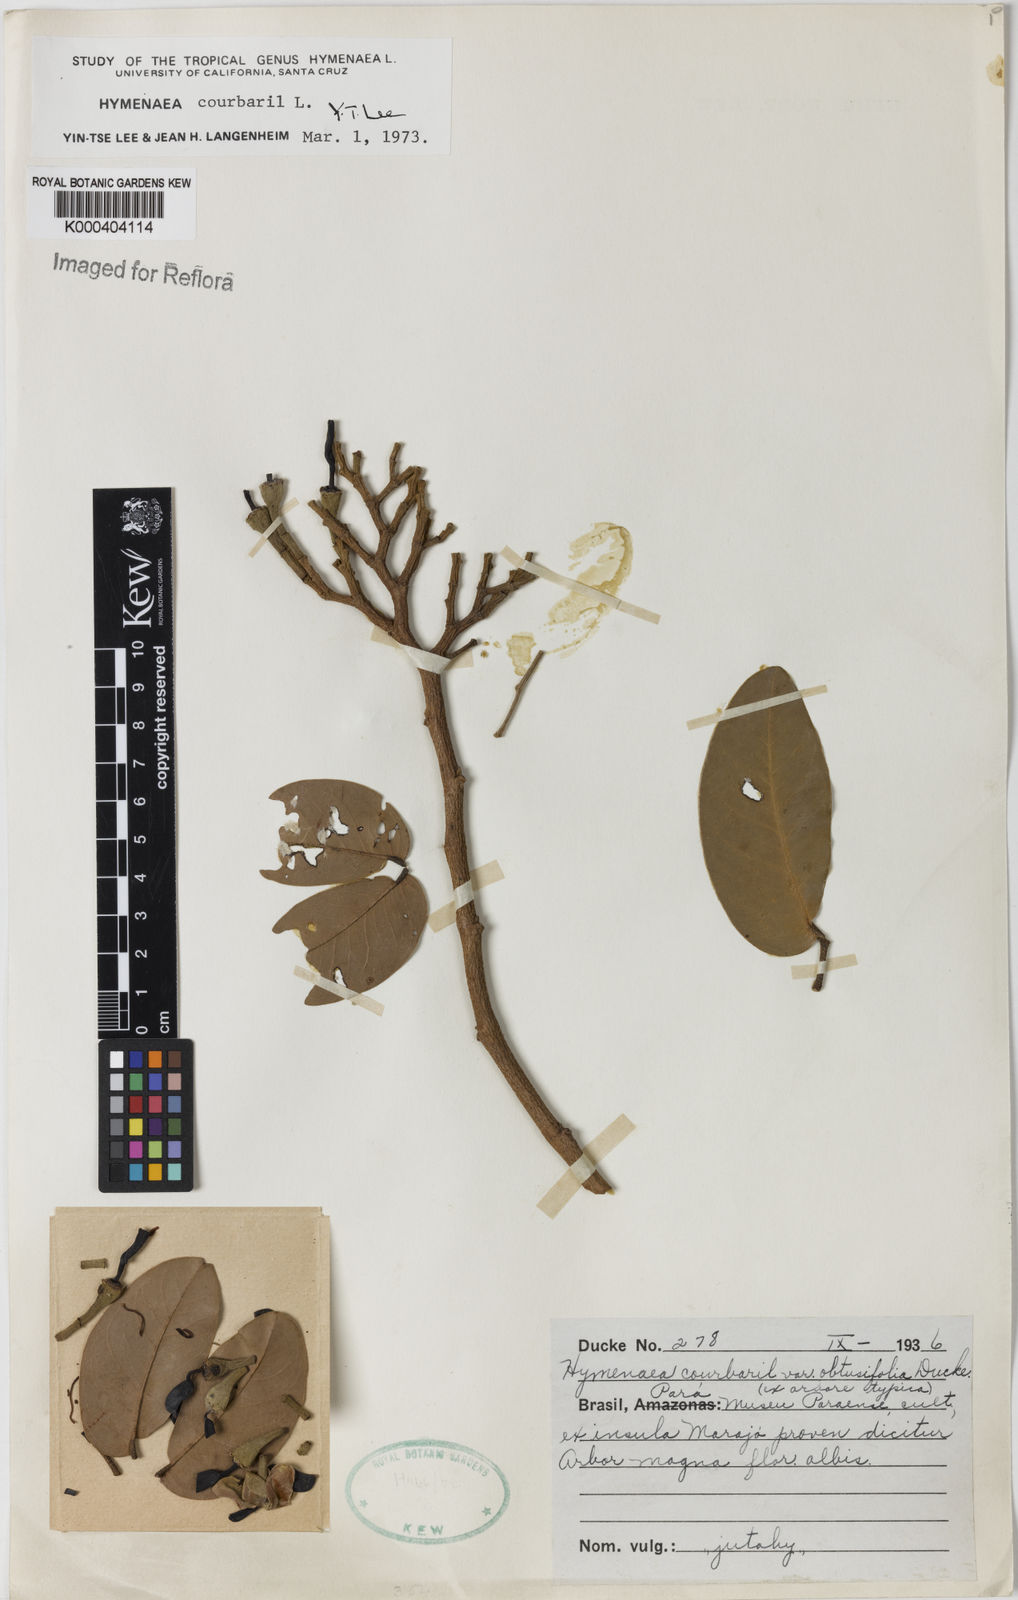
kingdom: Plantae
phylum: Tracheophyta
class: Magnoliopsida
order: Fabales
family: Fabaceae
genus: Hymenaea
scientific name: Hymenaea courbaril
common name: Brazilian copal
